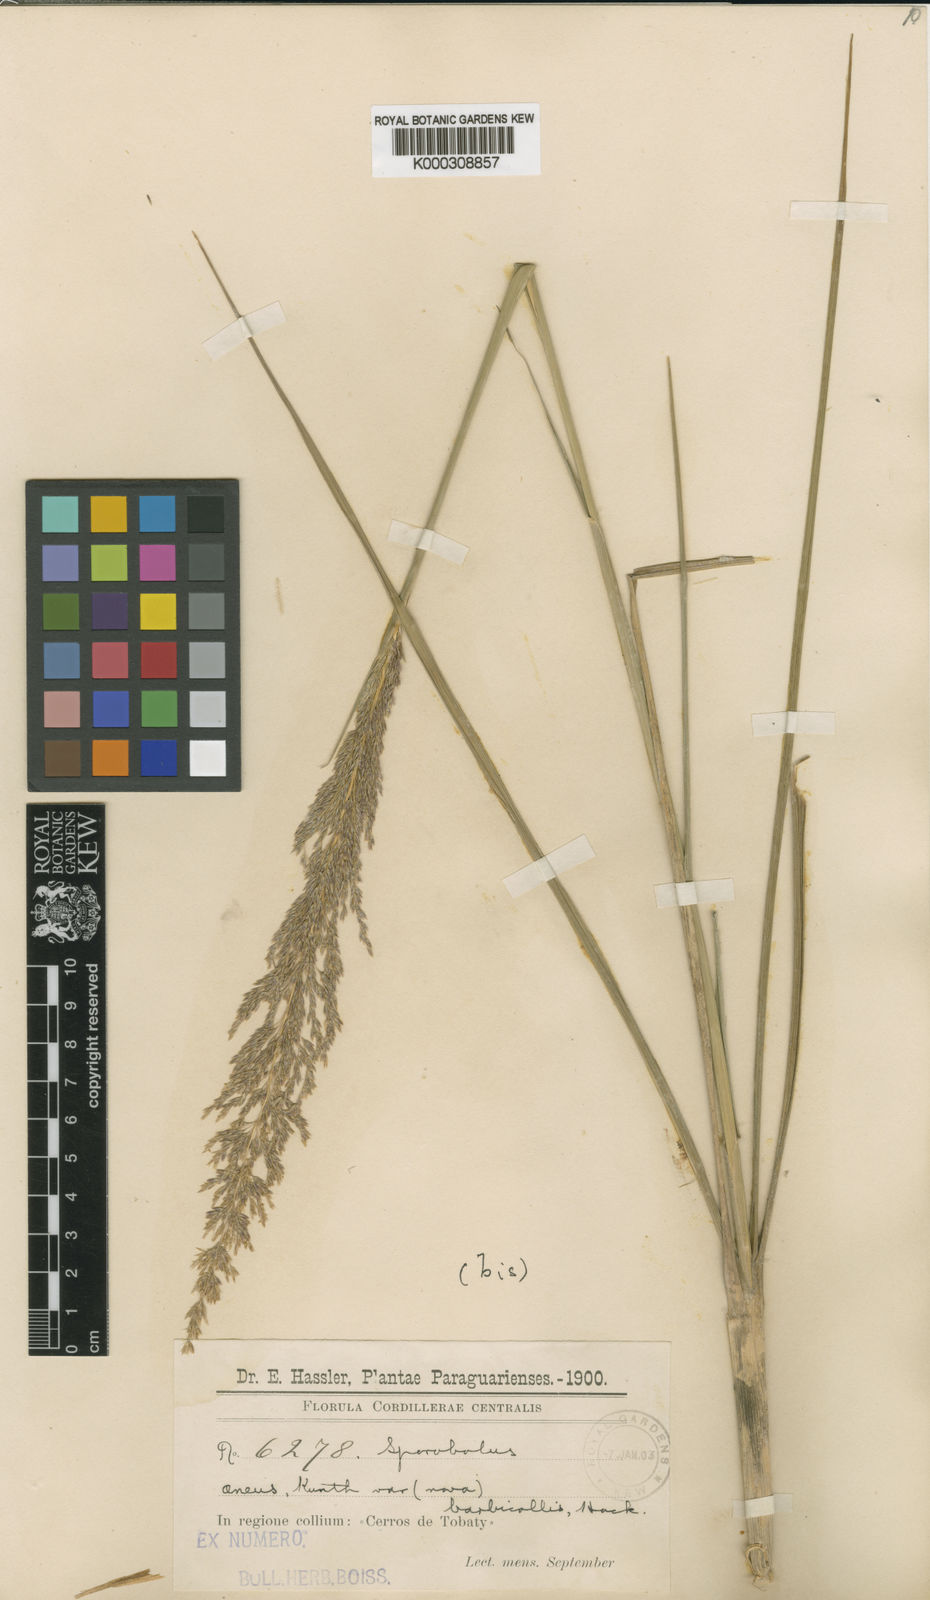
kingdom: Plantae
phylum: Tracheophyta
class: Liliopsida
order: Poales
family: Poaceae
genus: Sporobolus
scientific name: Sporobolus aeneus
